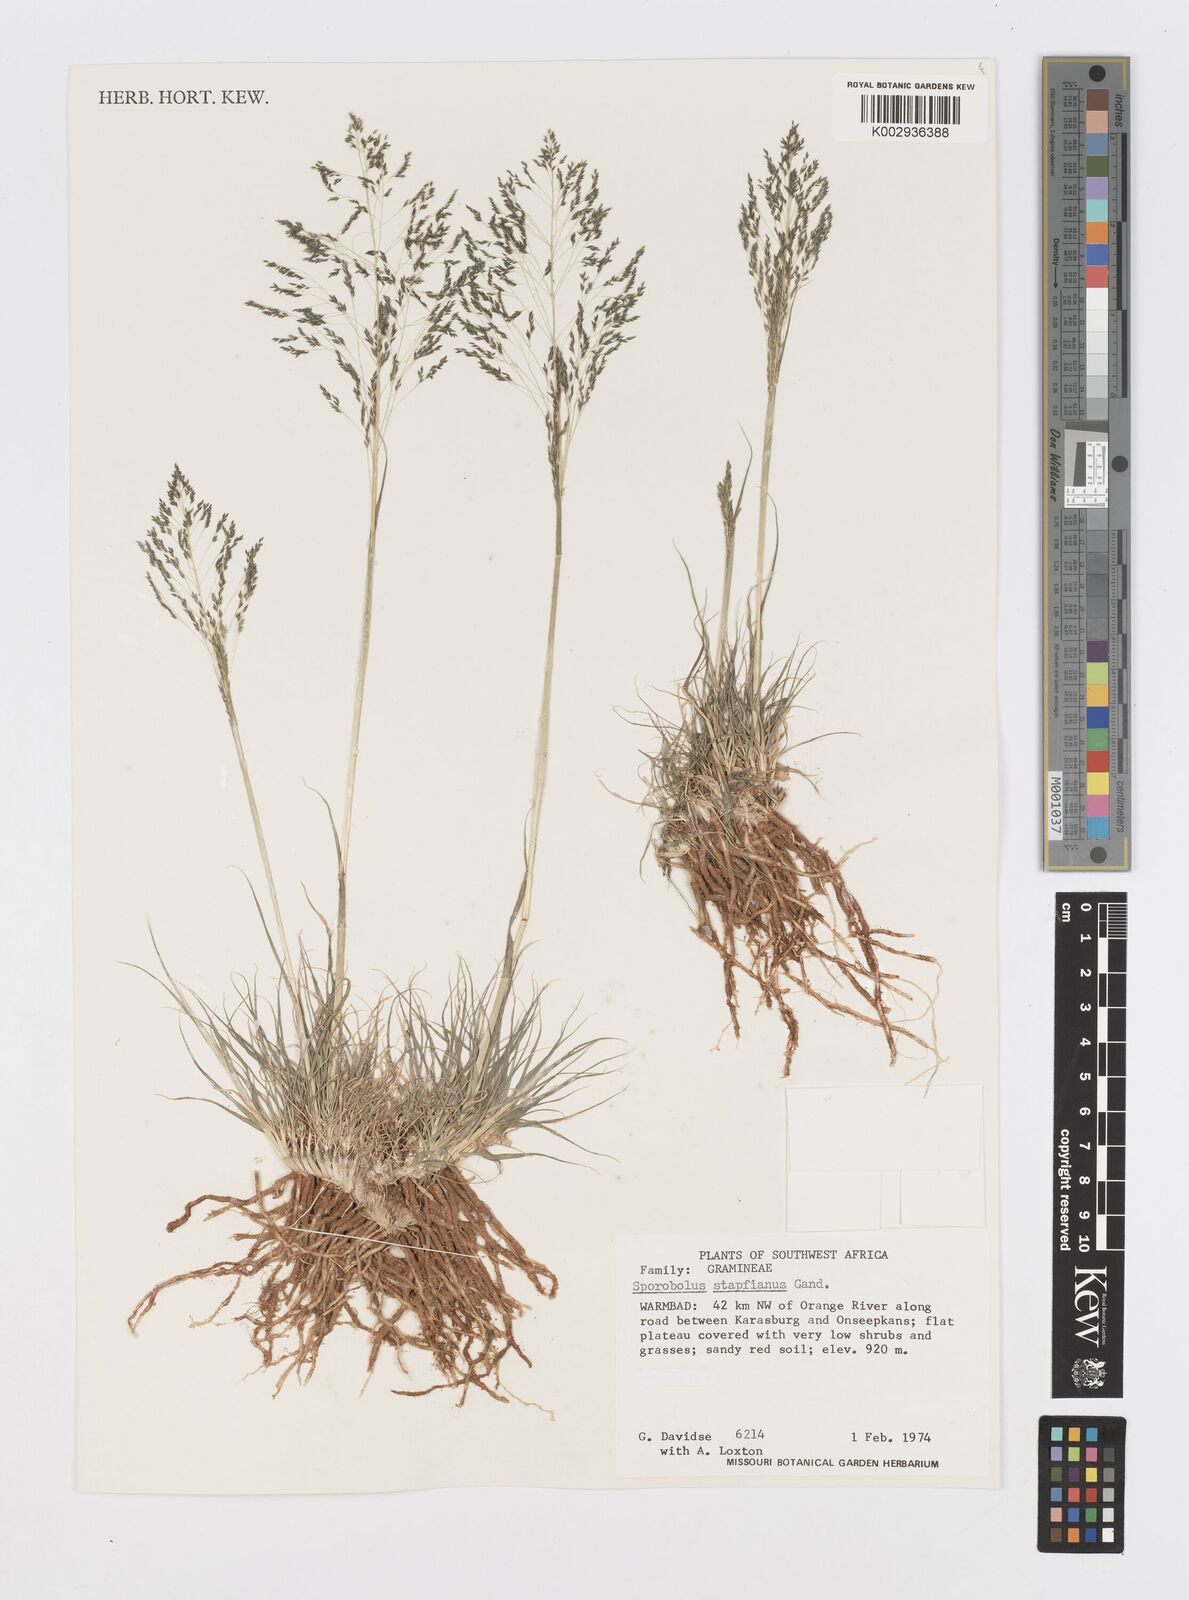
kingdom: Plantae
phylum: Tracheophyta
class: Liliopsida
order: Poales
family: Poaceae
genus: Sporobolus
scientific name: Sporobolus stapfianus
